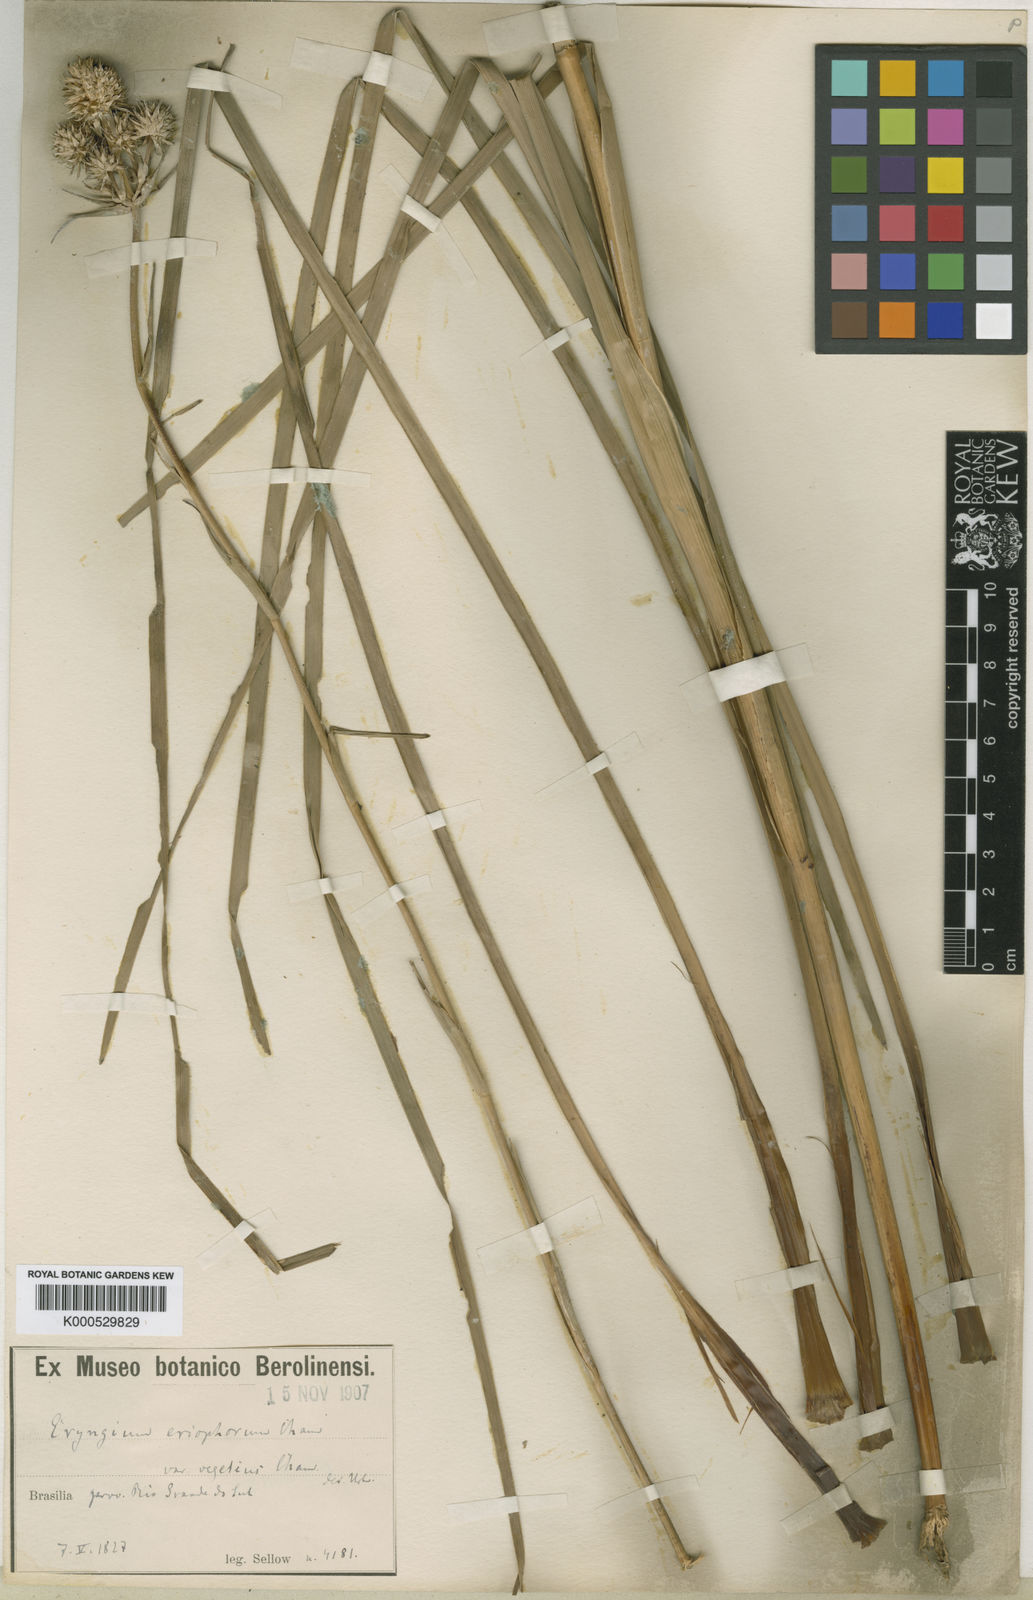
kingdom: Plantae
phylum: Tracheophyta
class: Magnoliopsida
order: Apiales
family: Apiaceae
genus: Eryngium
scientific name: Eryngium eriophorum
